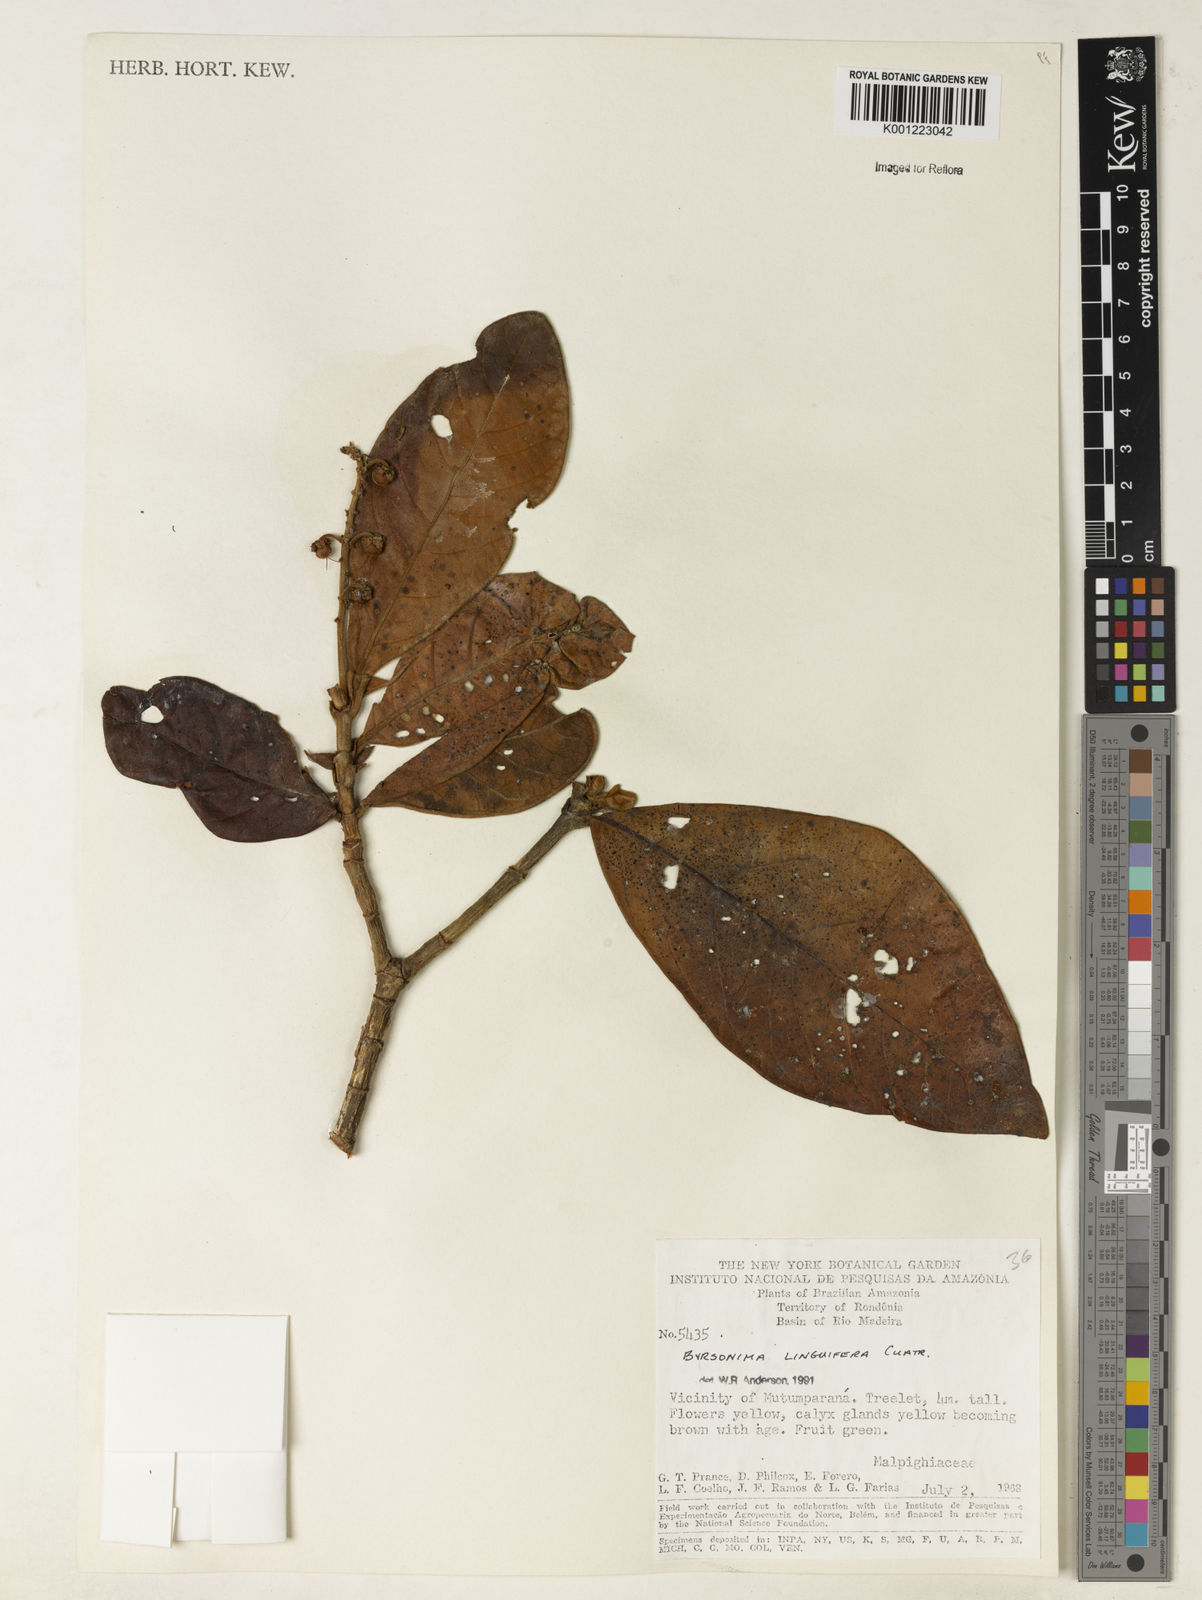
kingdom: Plantae
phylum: Tracheophyta
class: Magnoliopsida
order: Malpighiales
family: Malpighiaceae
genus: Byrsonima
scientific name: Byrsonima linguifera
